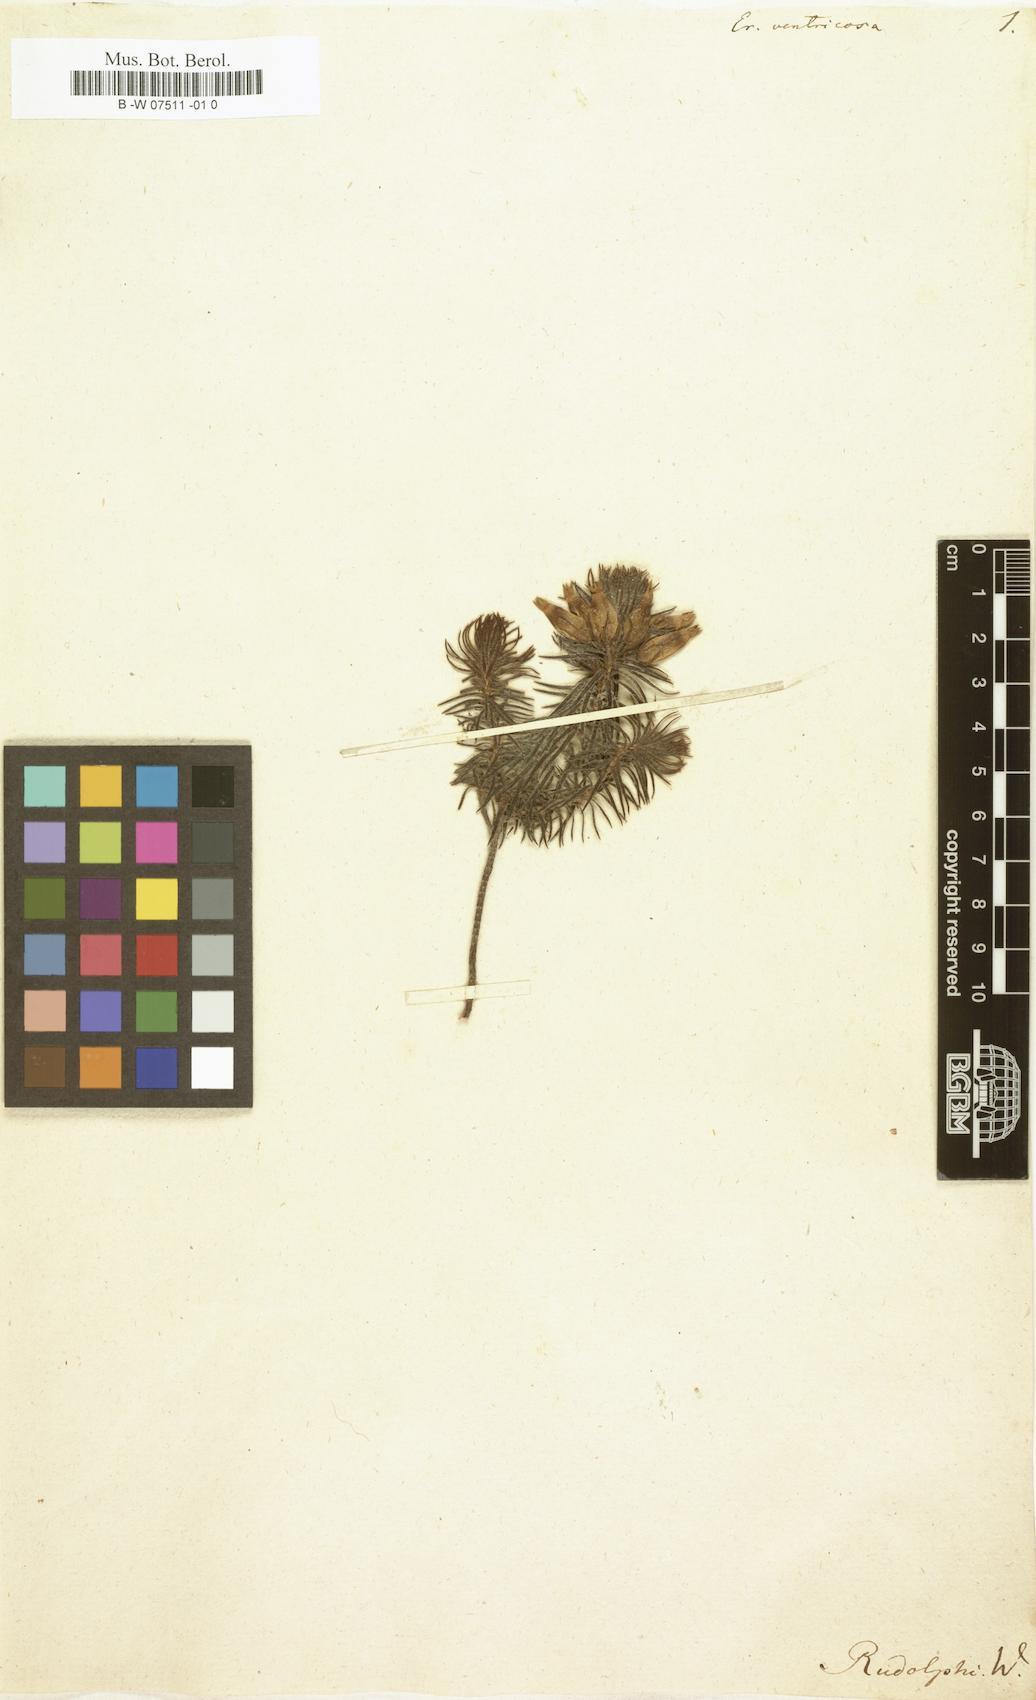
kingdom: Plantae
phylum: Tracheophyta
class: Magnoliopsida
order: Ericales
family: Ericaceae
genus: Erica
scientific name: Erica ventricosa
